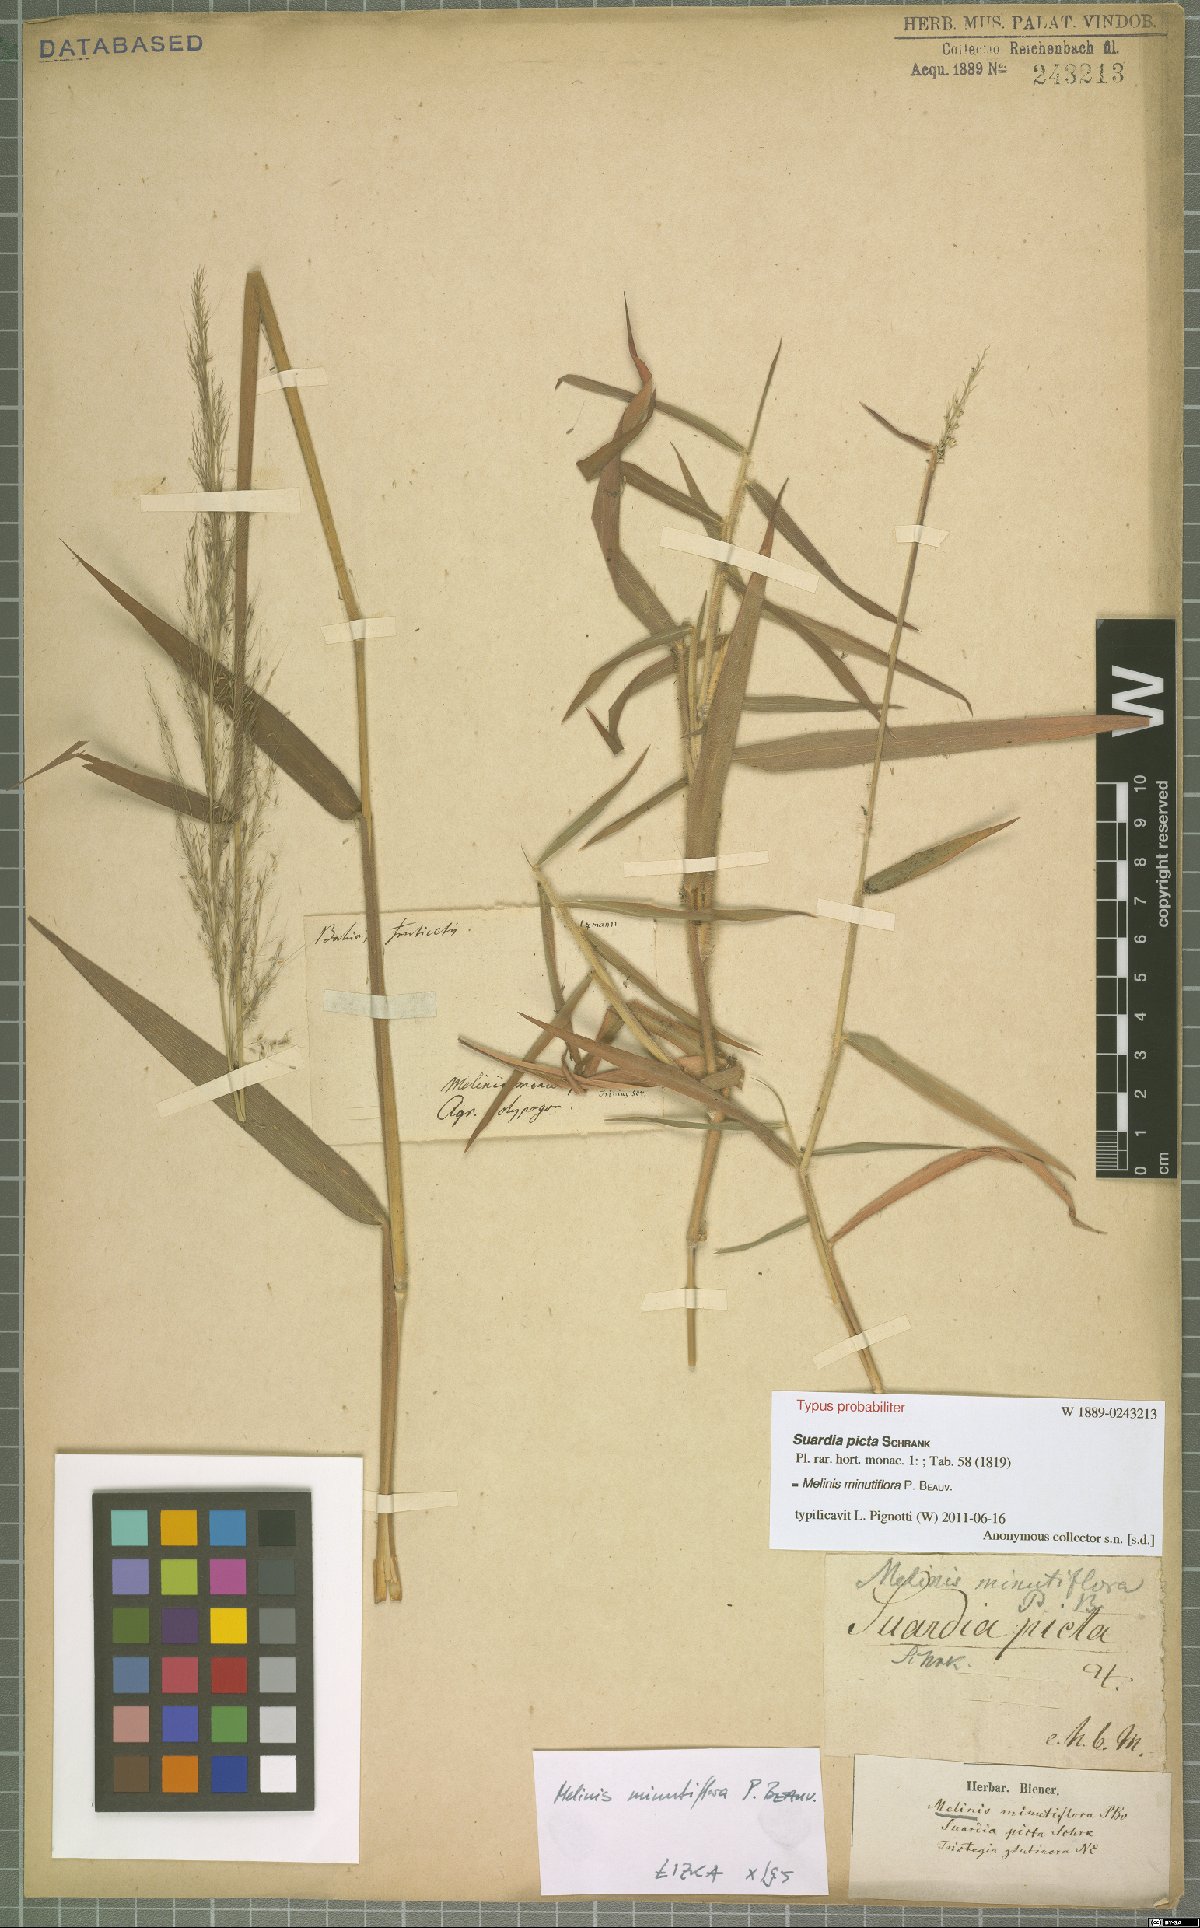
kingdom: Plantae
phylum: Tracheophyta
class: Liliopsida
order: Poales
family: Poaceae
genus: Melinis
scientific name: Melinis minutiflora
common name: Molassesgrass
